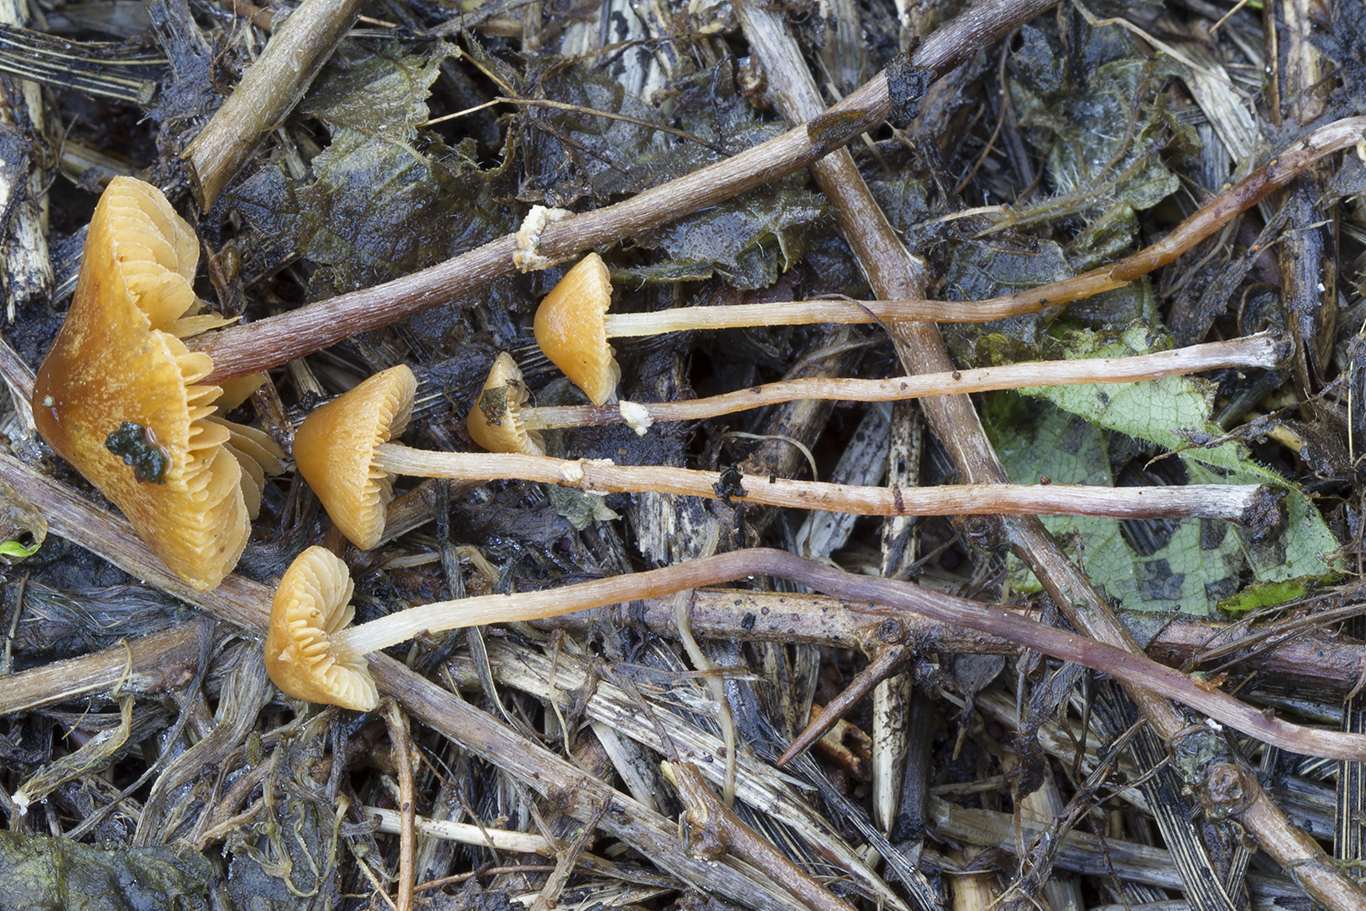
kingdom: Fungi
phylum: Basidiomycota
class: Agaricomycetes
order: Agaricales
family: Bolbitiaceae
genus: Pholiotina
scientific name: Pholiotina teneroides
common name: tosporet dansehat
